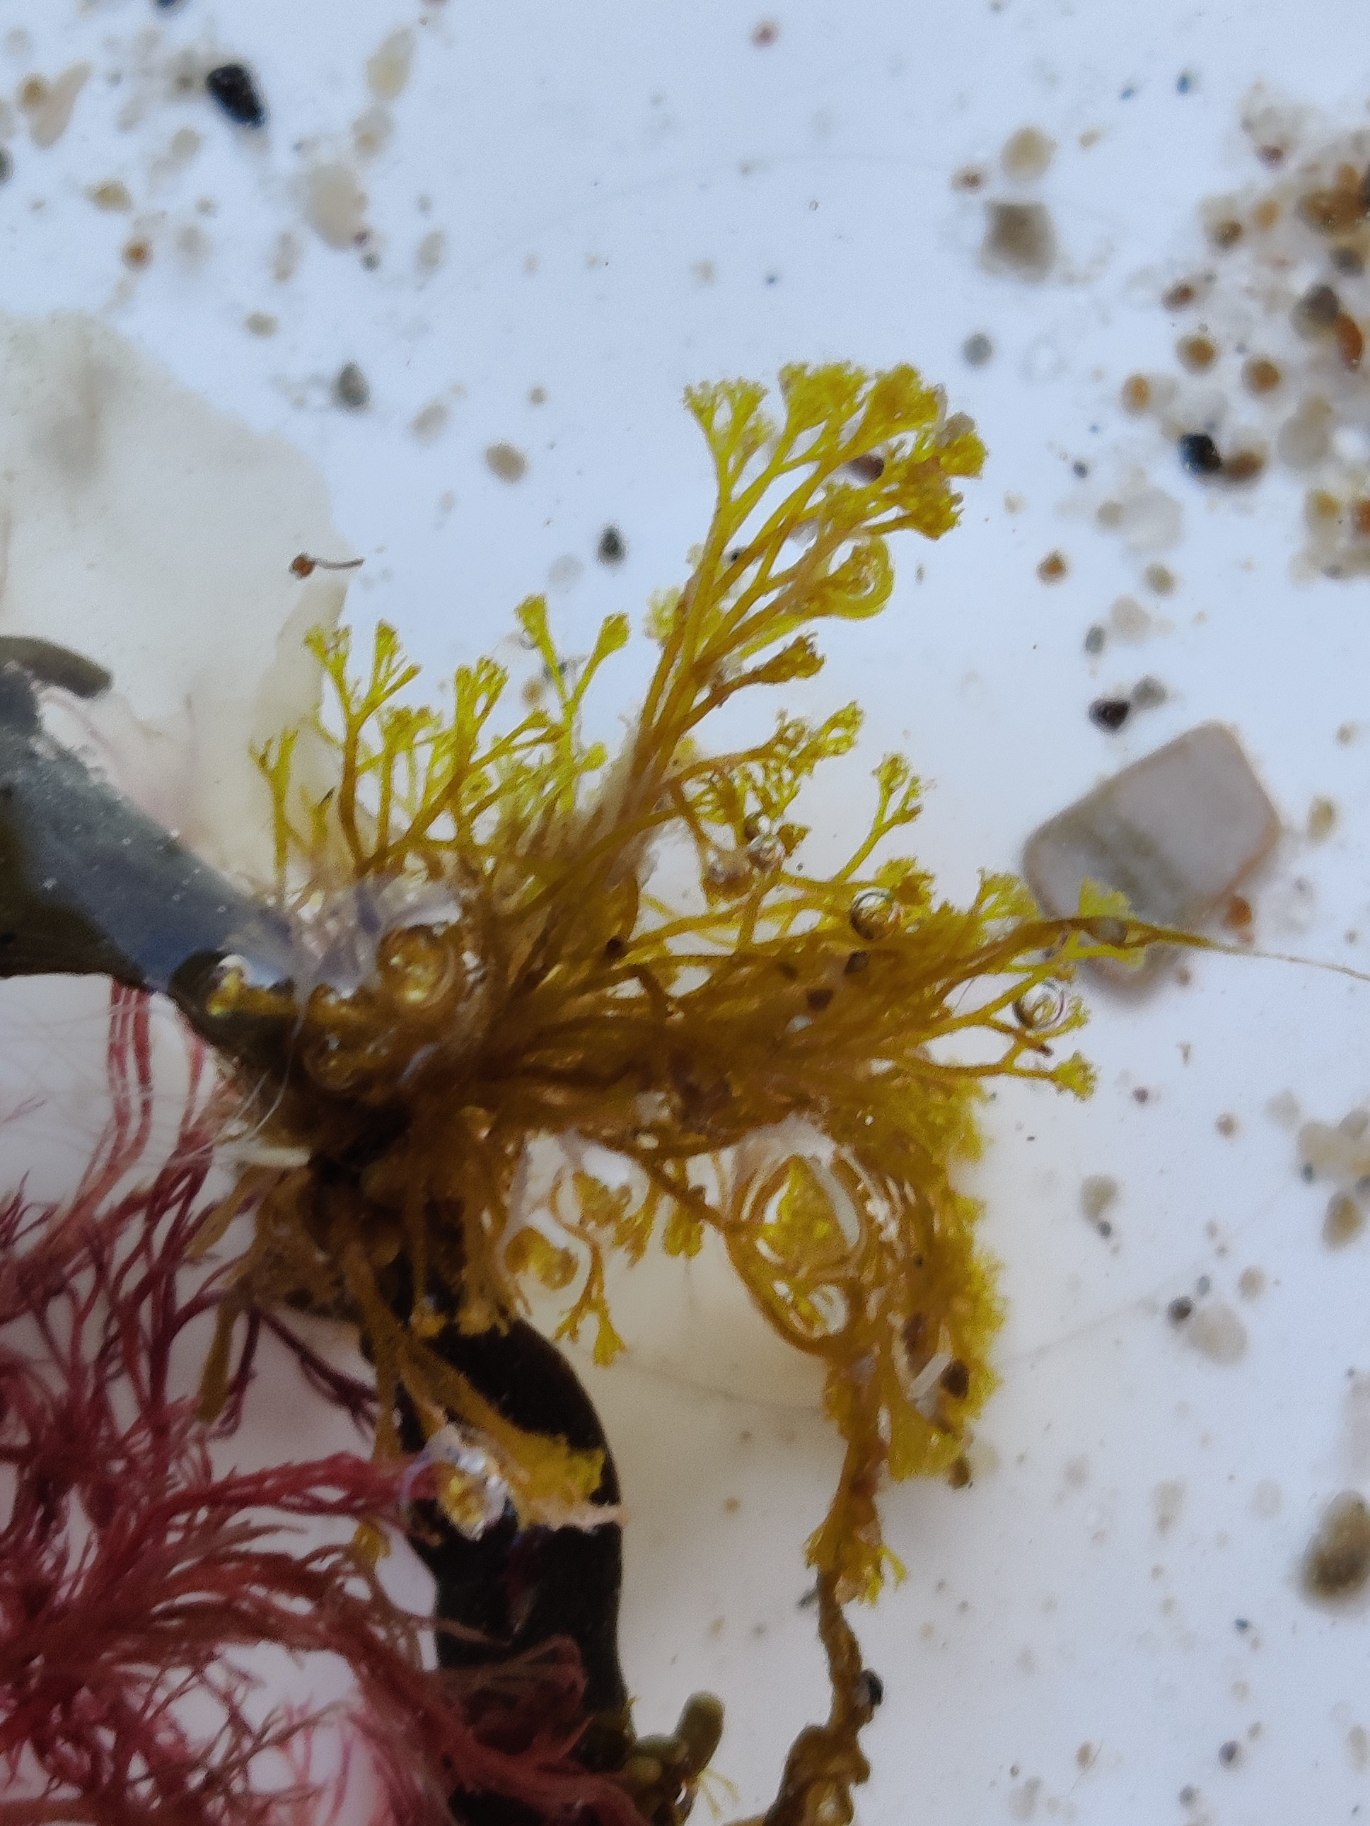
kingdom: Plantae
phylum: Rhodophyta
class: Florideophyceae
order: Ceramiales
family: Rhodomelaceae
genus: Vertebrata
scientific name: Vertebrata lanosa
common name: Uldtottet ledtang
